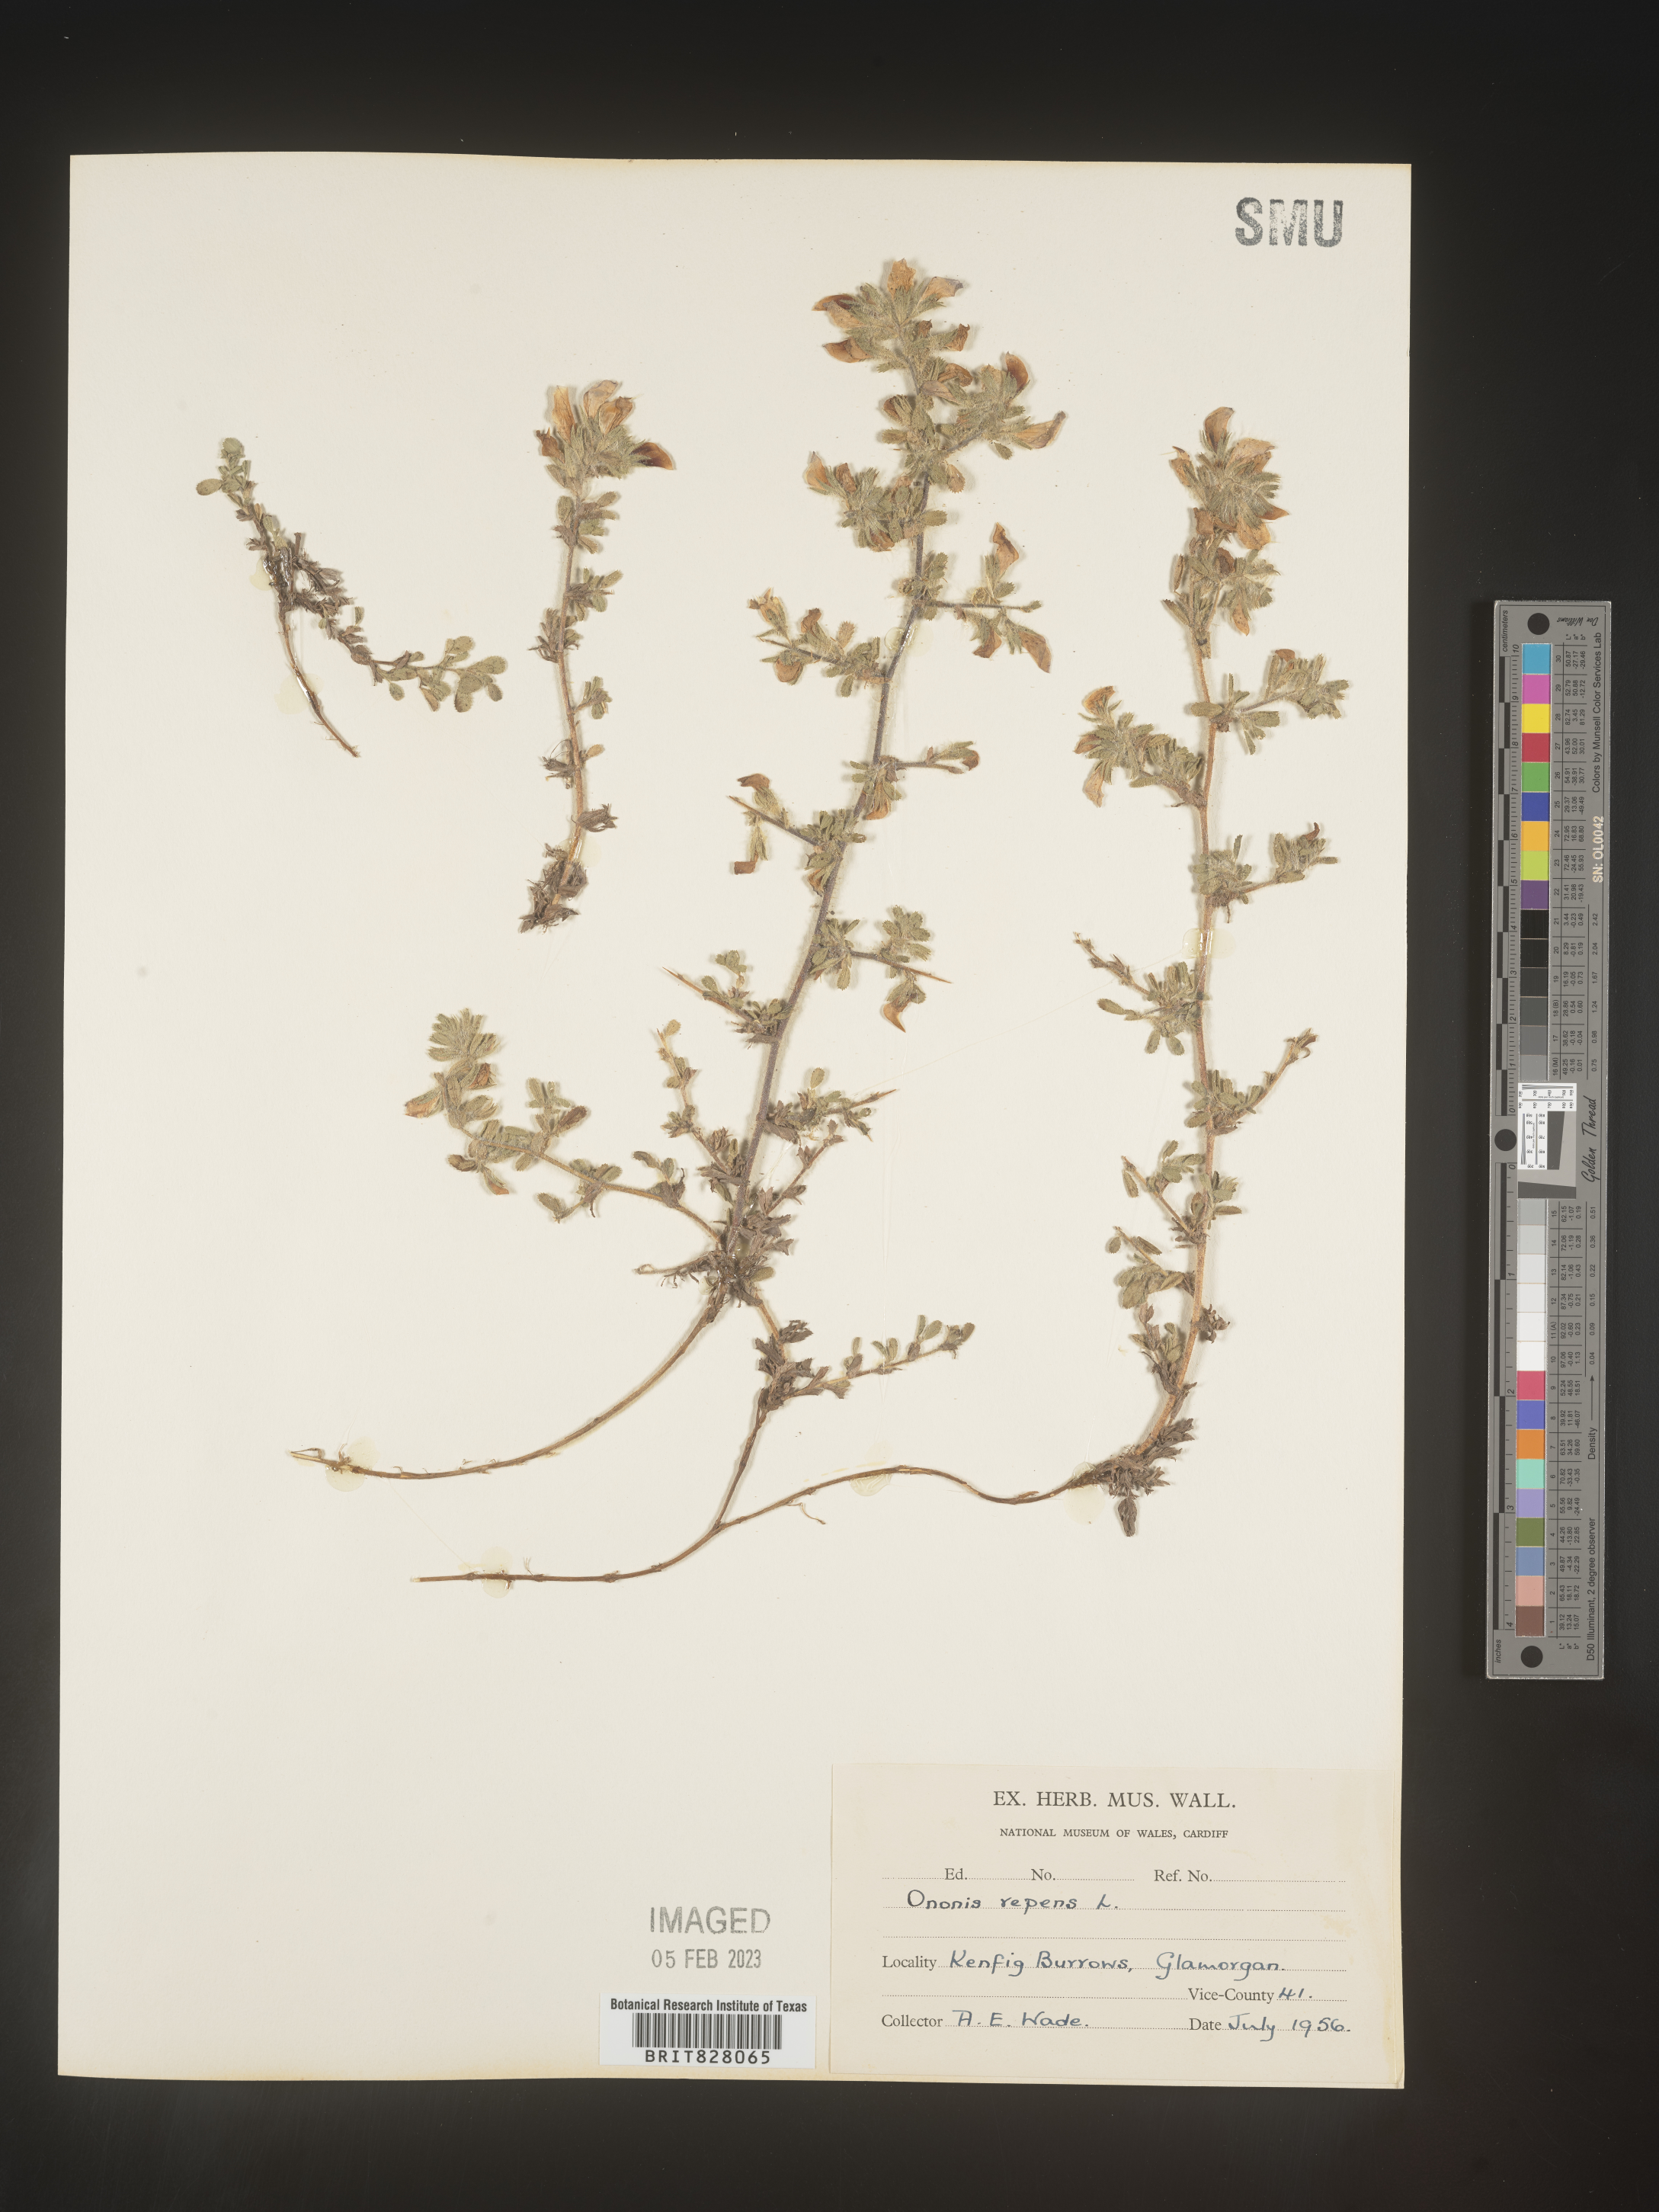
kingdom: Plantae
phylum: Tracheophyta
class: Magnoliopsida
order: Fabales
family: Fabaceae
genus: Ononis
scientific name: Ononis
